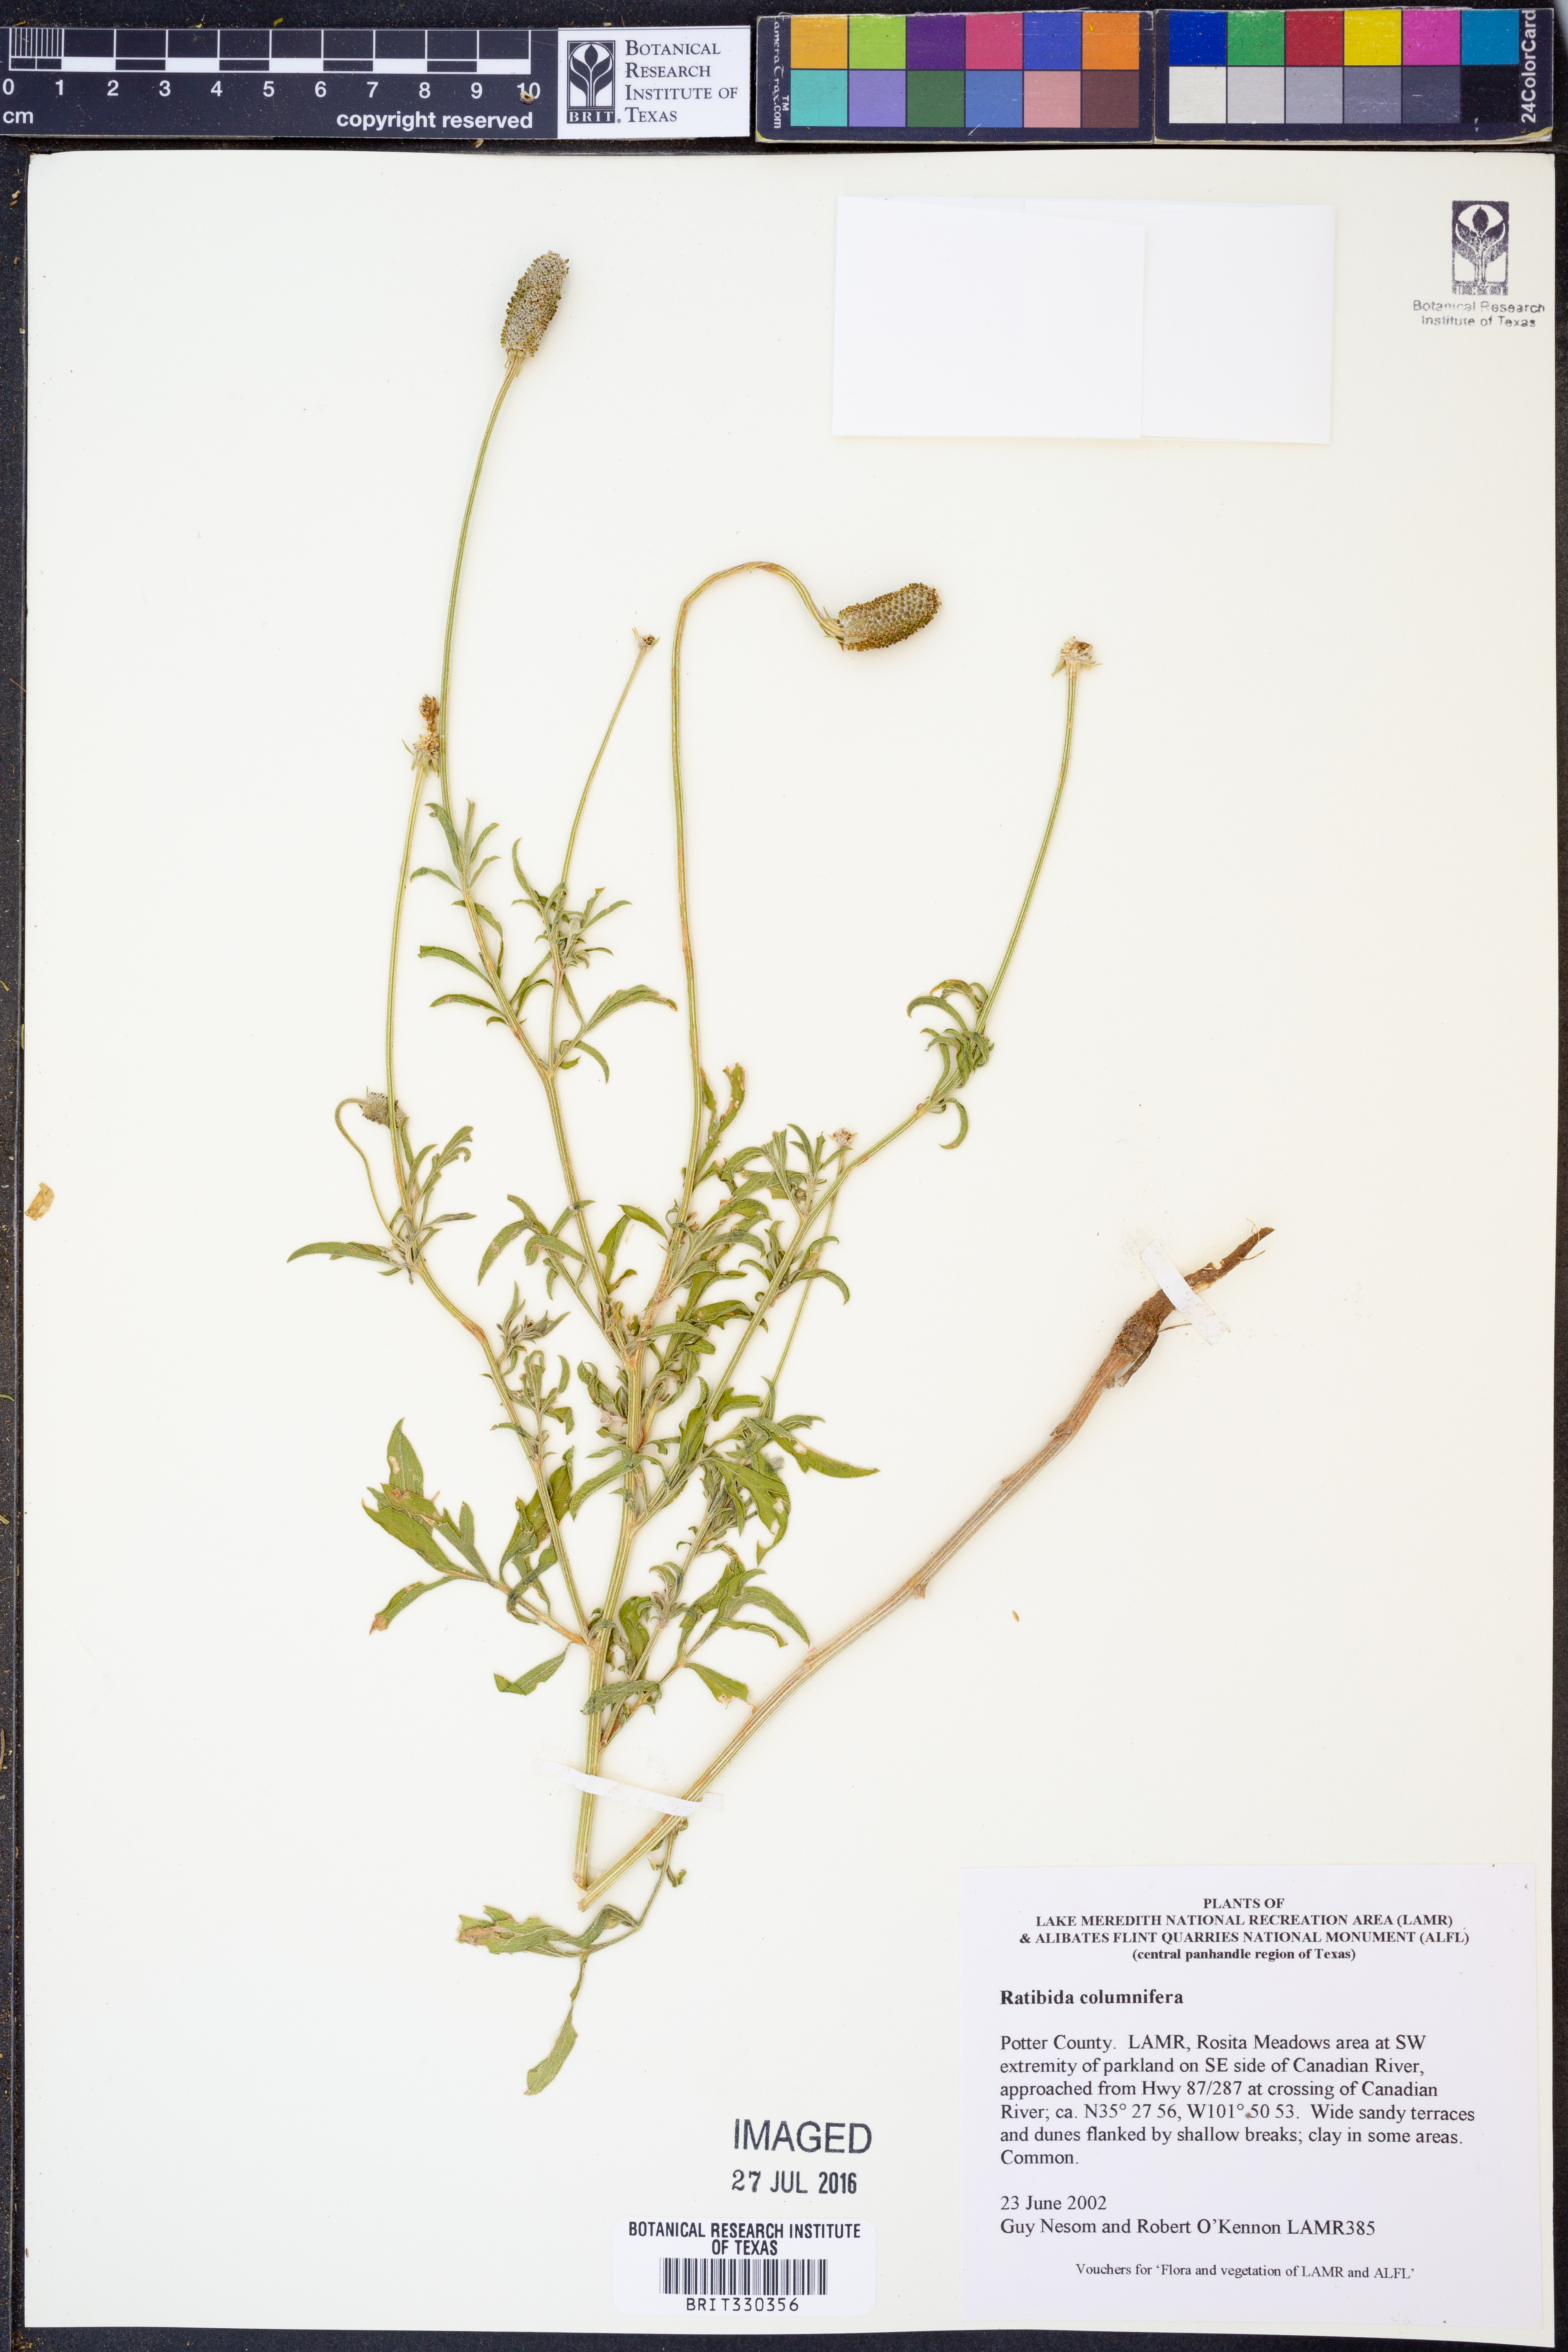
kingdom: Plantae
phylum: Tracheophyta
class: Magnoliopsida
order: Asterales
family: Asteraceae
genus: Ratibida
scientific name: Ratibida columnifera
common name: Prairie coneflower
